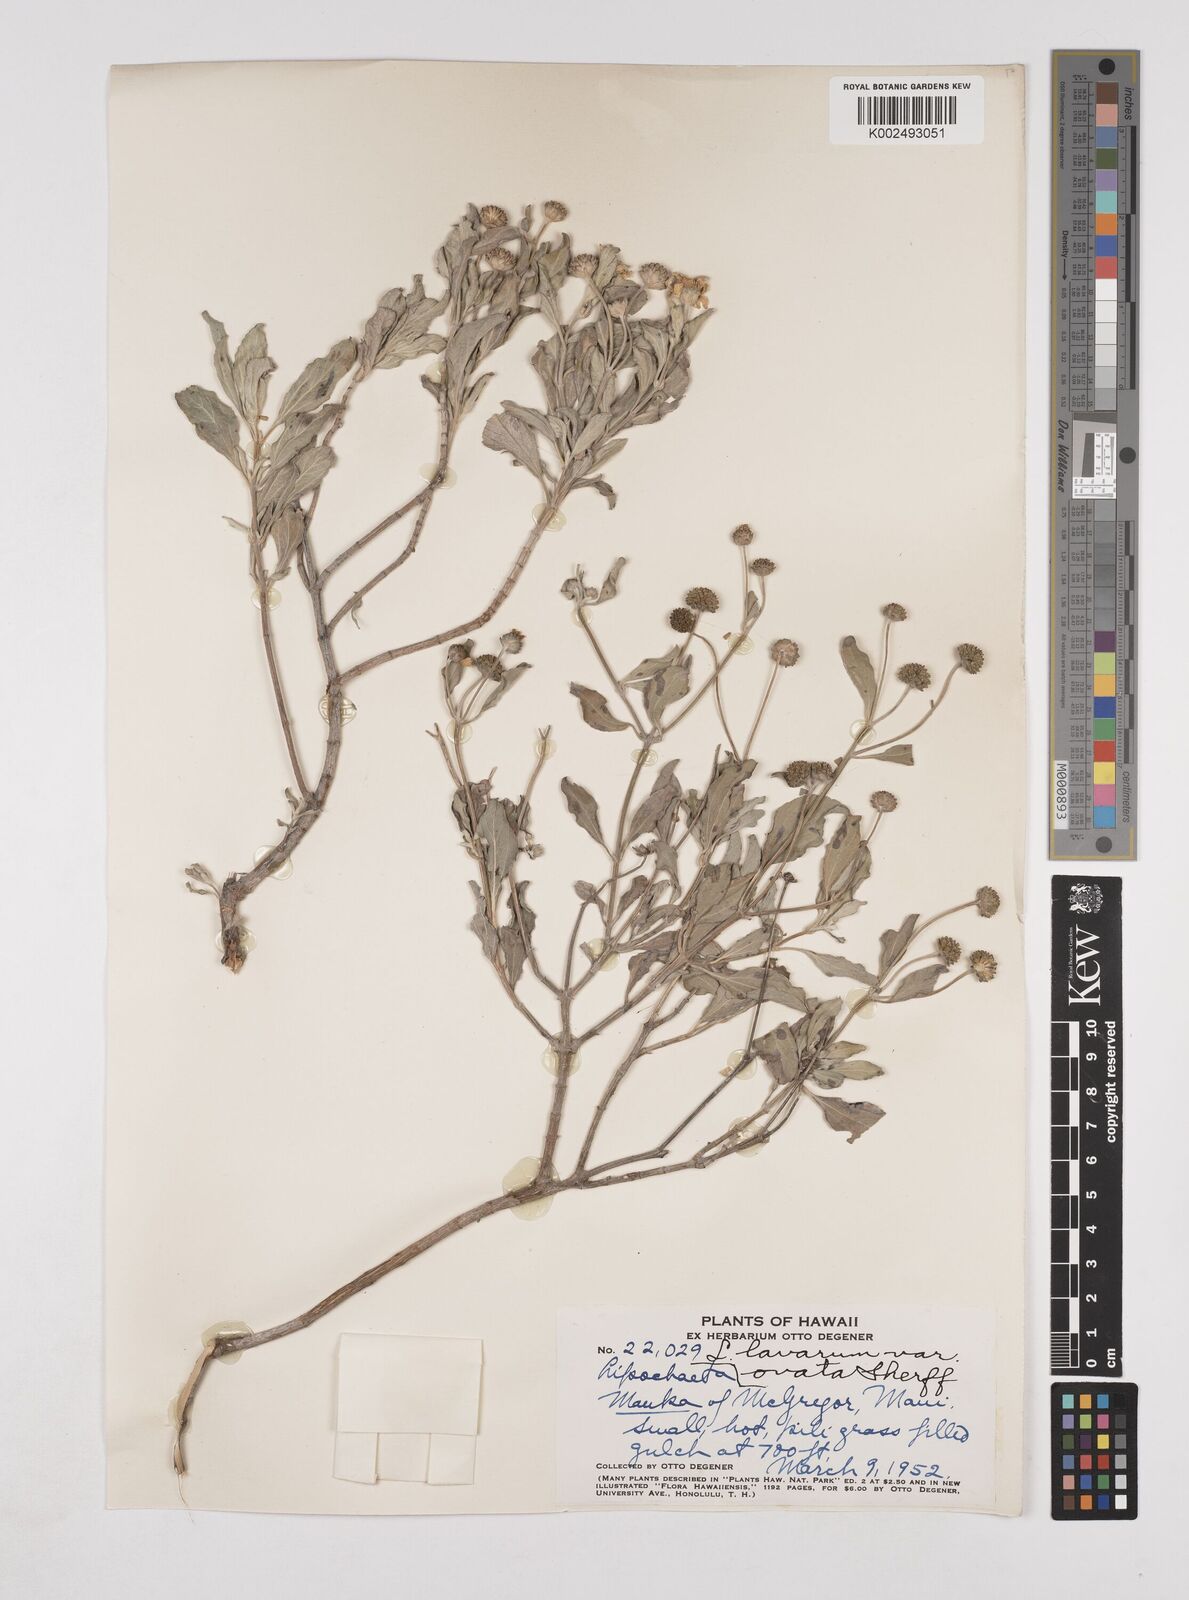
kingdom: Plantae
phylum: Tracheophyta
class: Magnoliopsida
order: Asterales
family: Asteraceae
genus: Lipochaeta
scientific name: Lipochaeta lavarum
